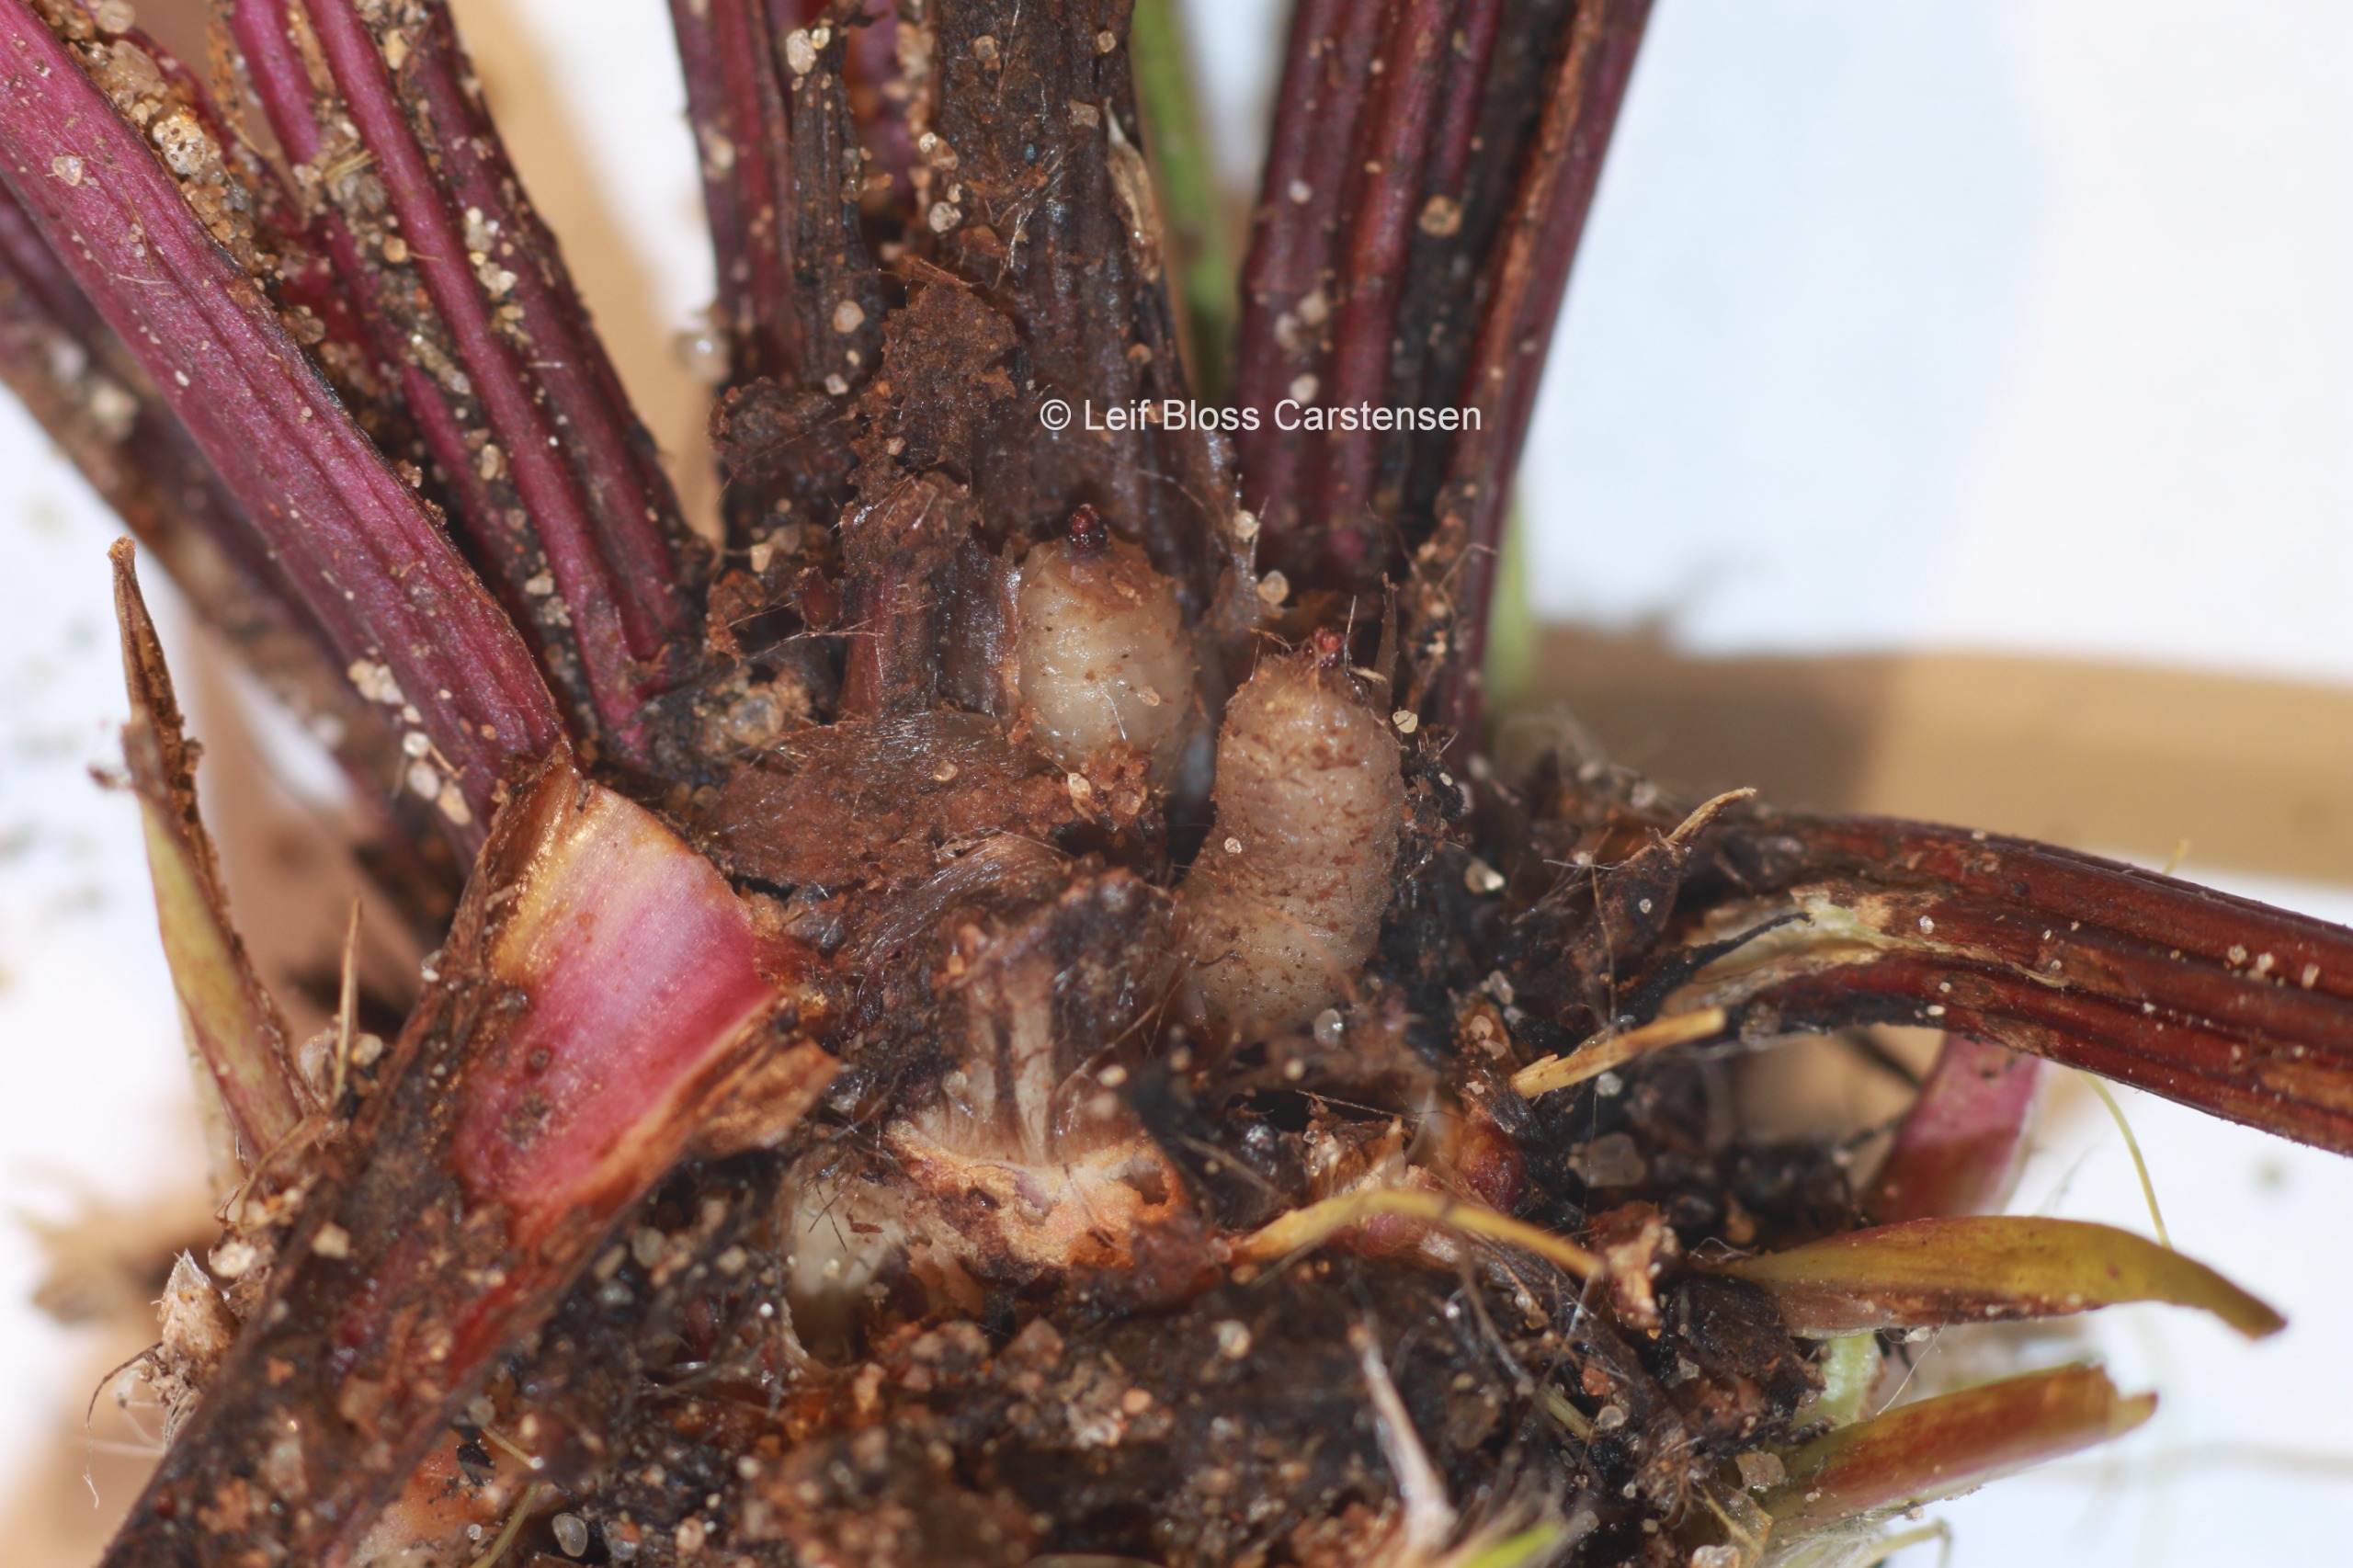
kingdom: Animalia
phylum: Arthropoda
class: Insecta
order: Diptera
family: Syrphidae
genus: Cheilosia
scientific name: Cheilosia lasiopa
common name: Vejbred-urtesvirreflue
